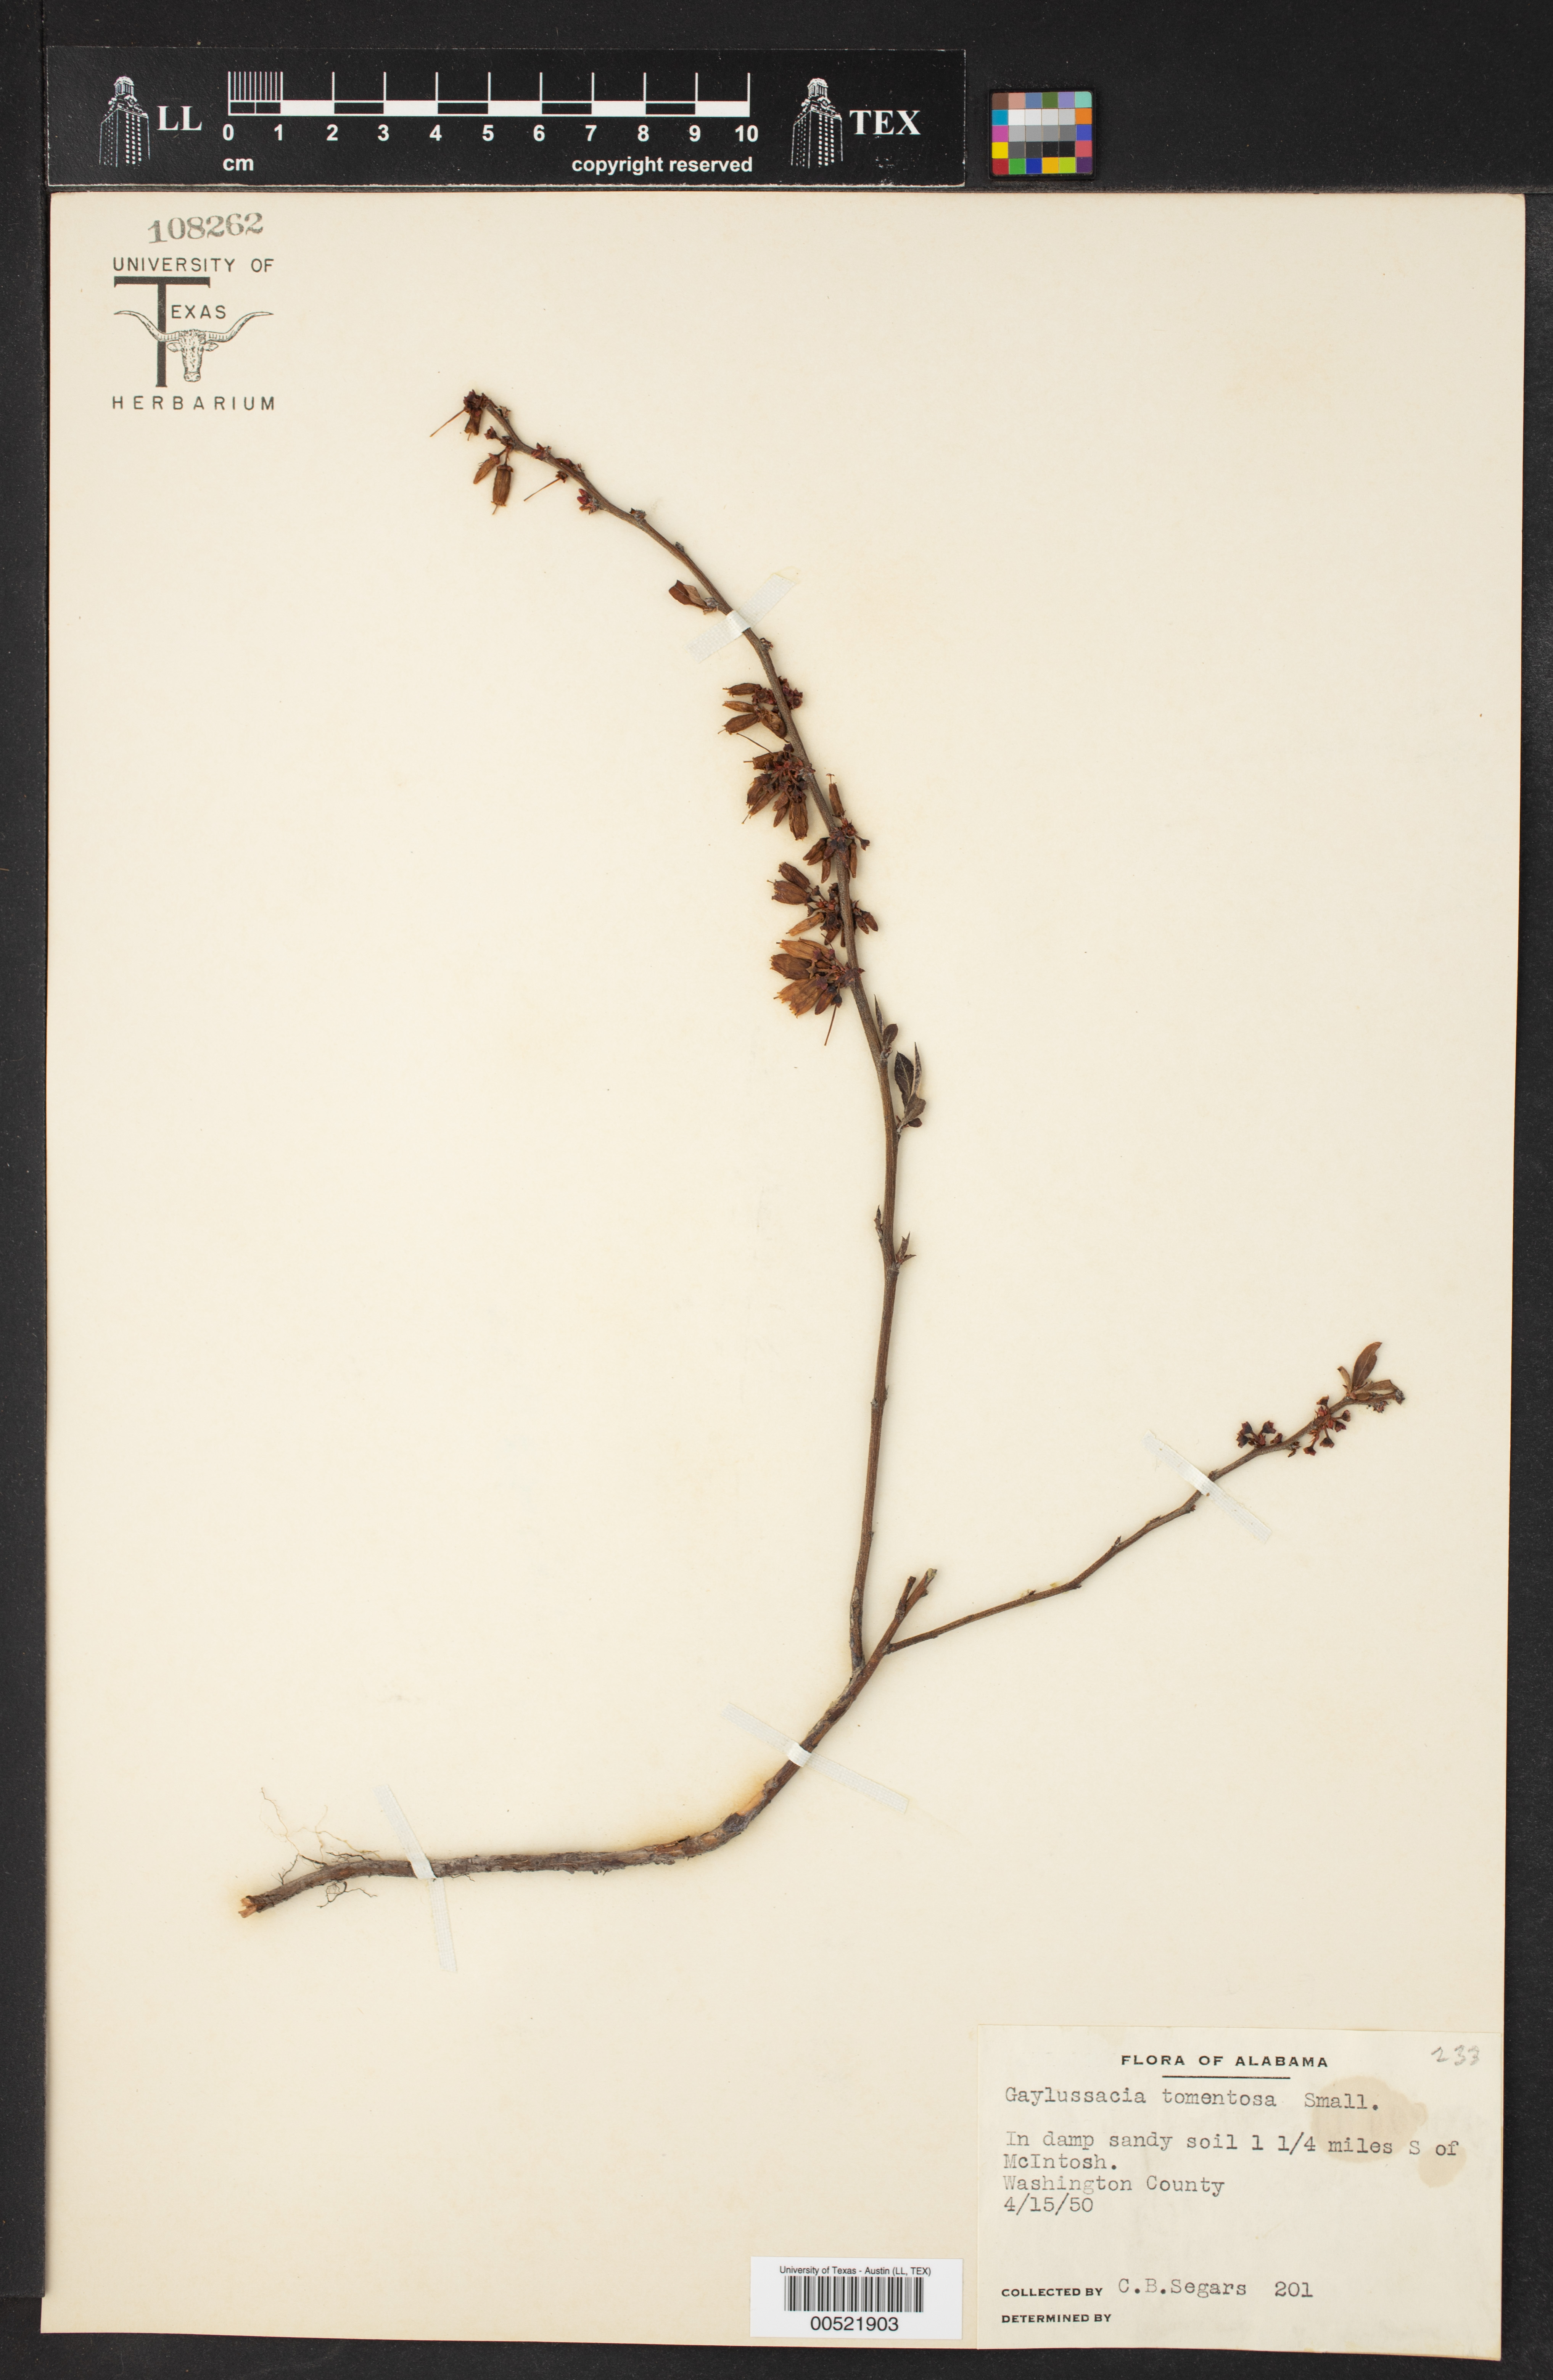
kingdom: Plantae
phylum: Tracheophyta
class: Magnoliopsida
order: Ericales
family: Ericaceae
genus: Gaylussacia
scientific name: Gaylussacia tomentosa
